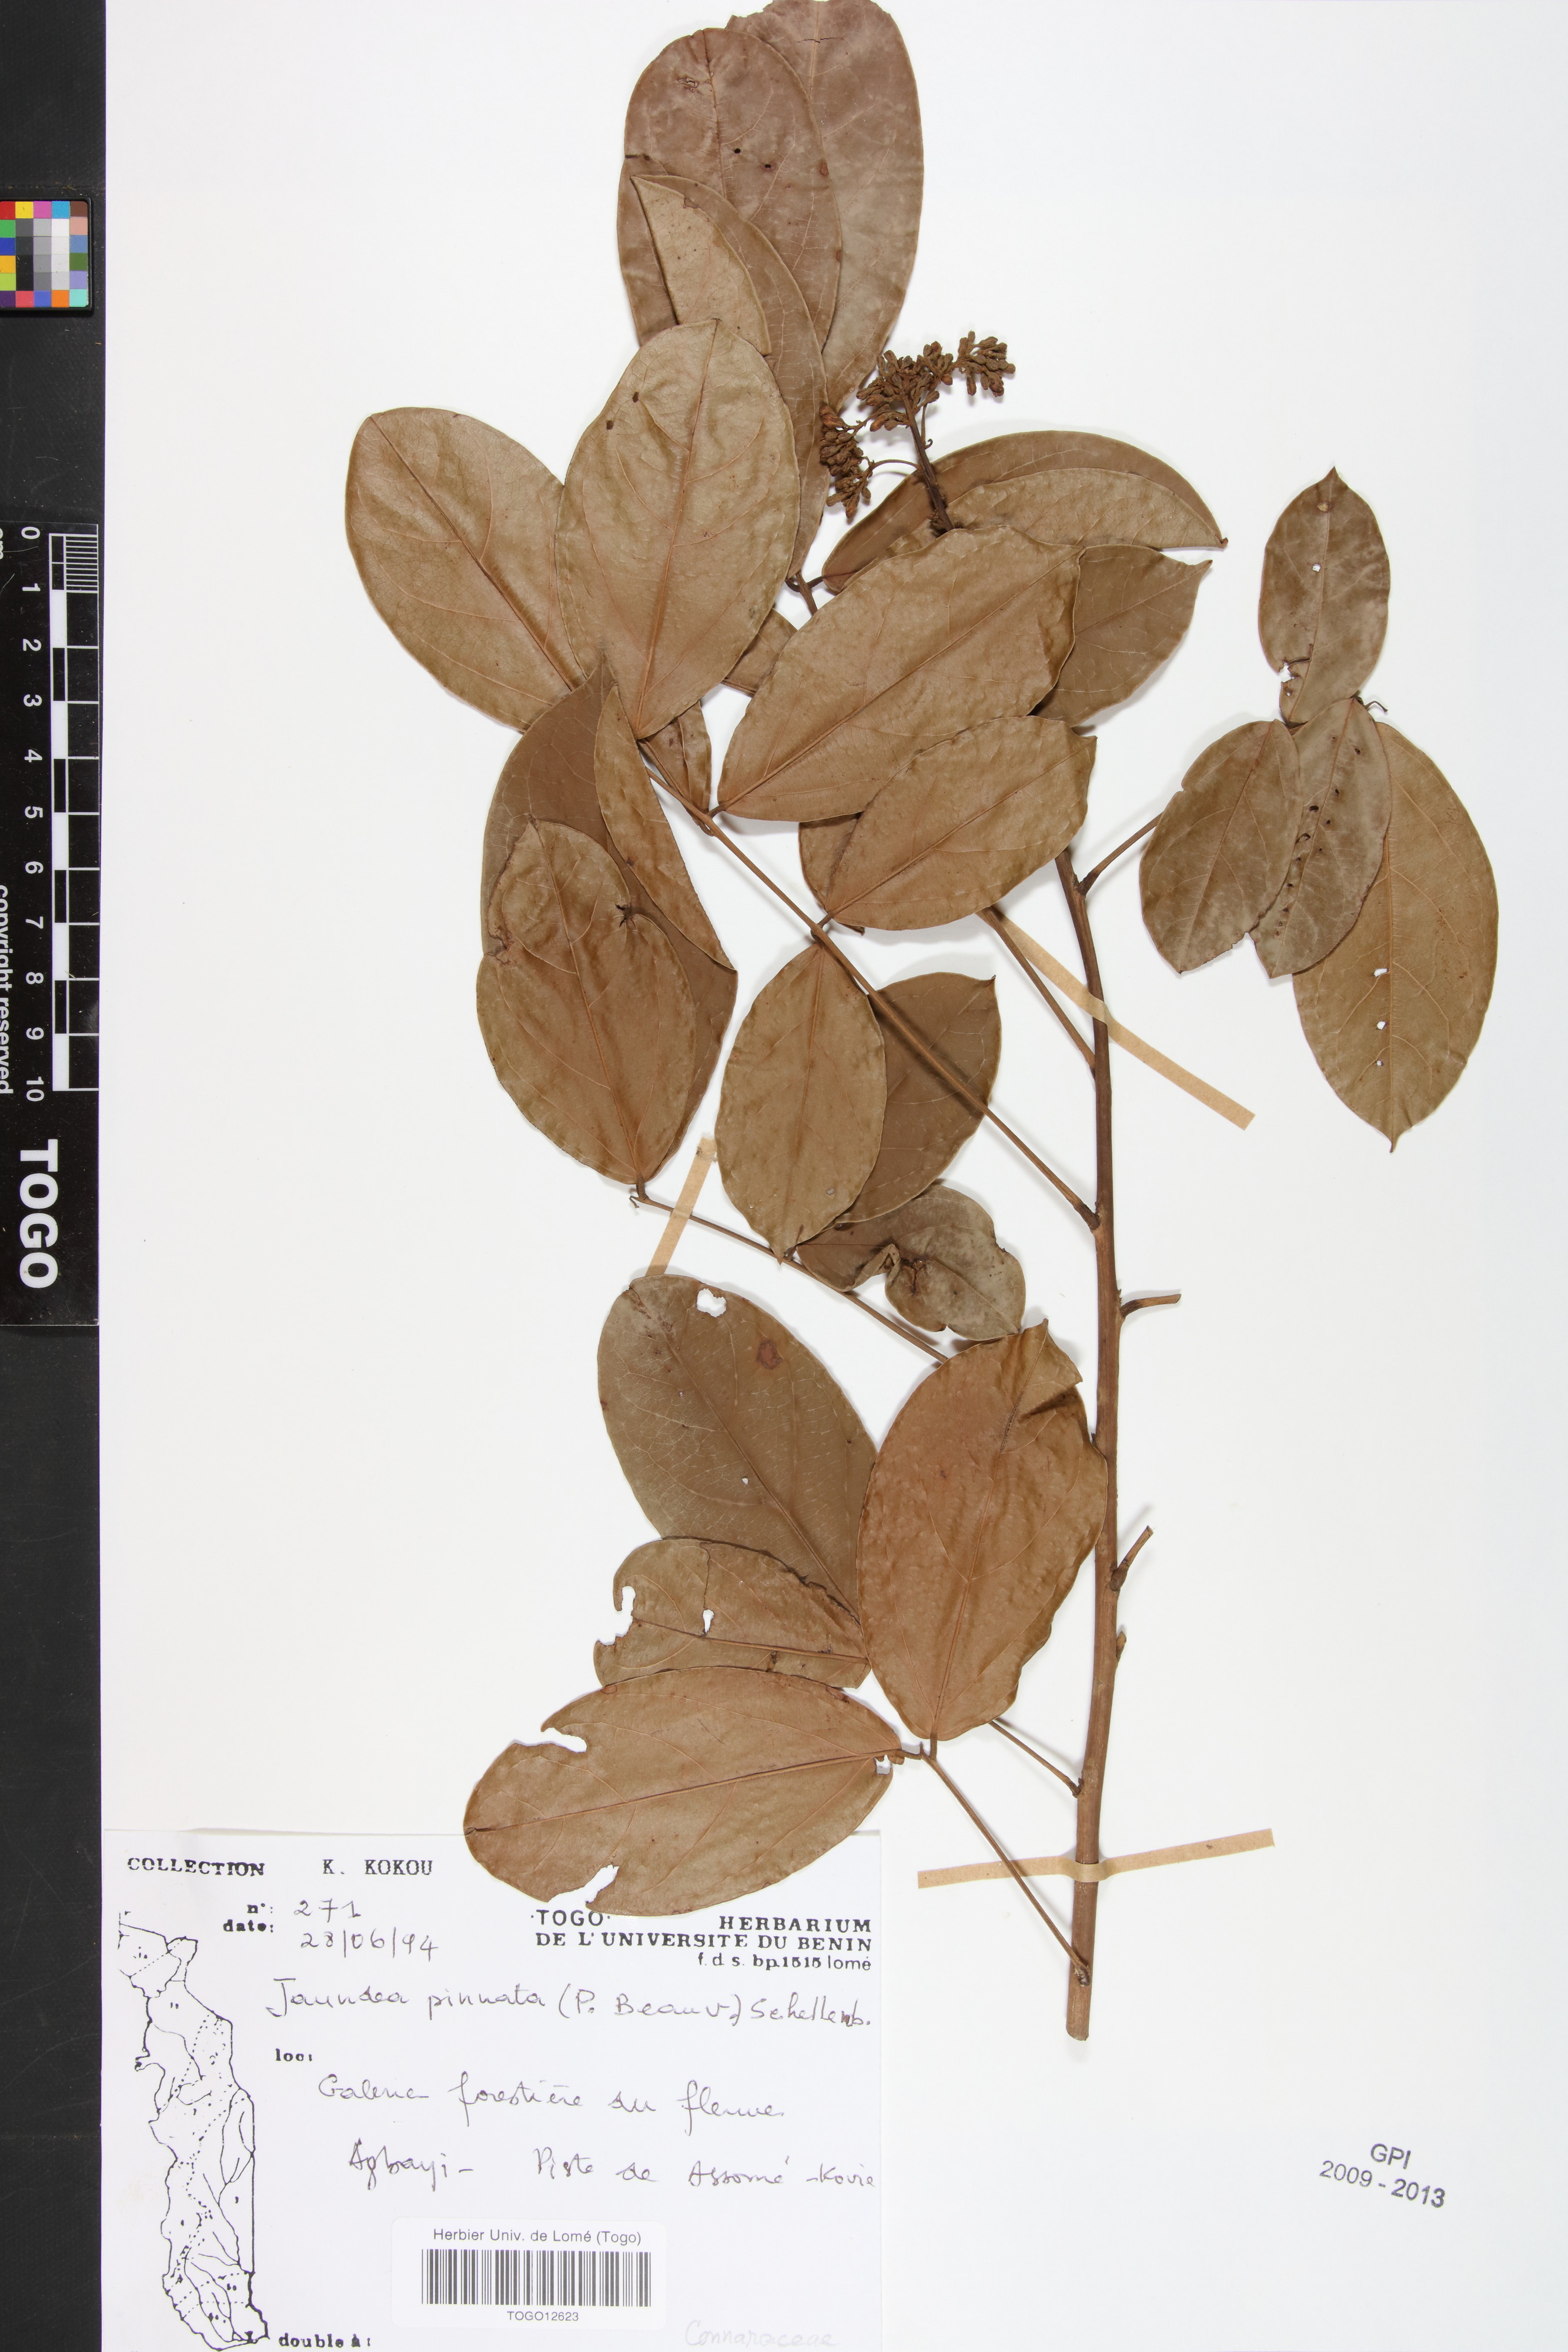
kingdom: Plantae
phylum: Tracheophyta
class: Magnoliopsida
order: Oxalidales
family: Connaraceae
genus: Rourea
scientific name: Rourea thomsonii
